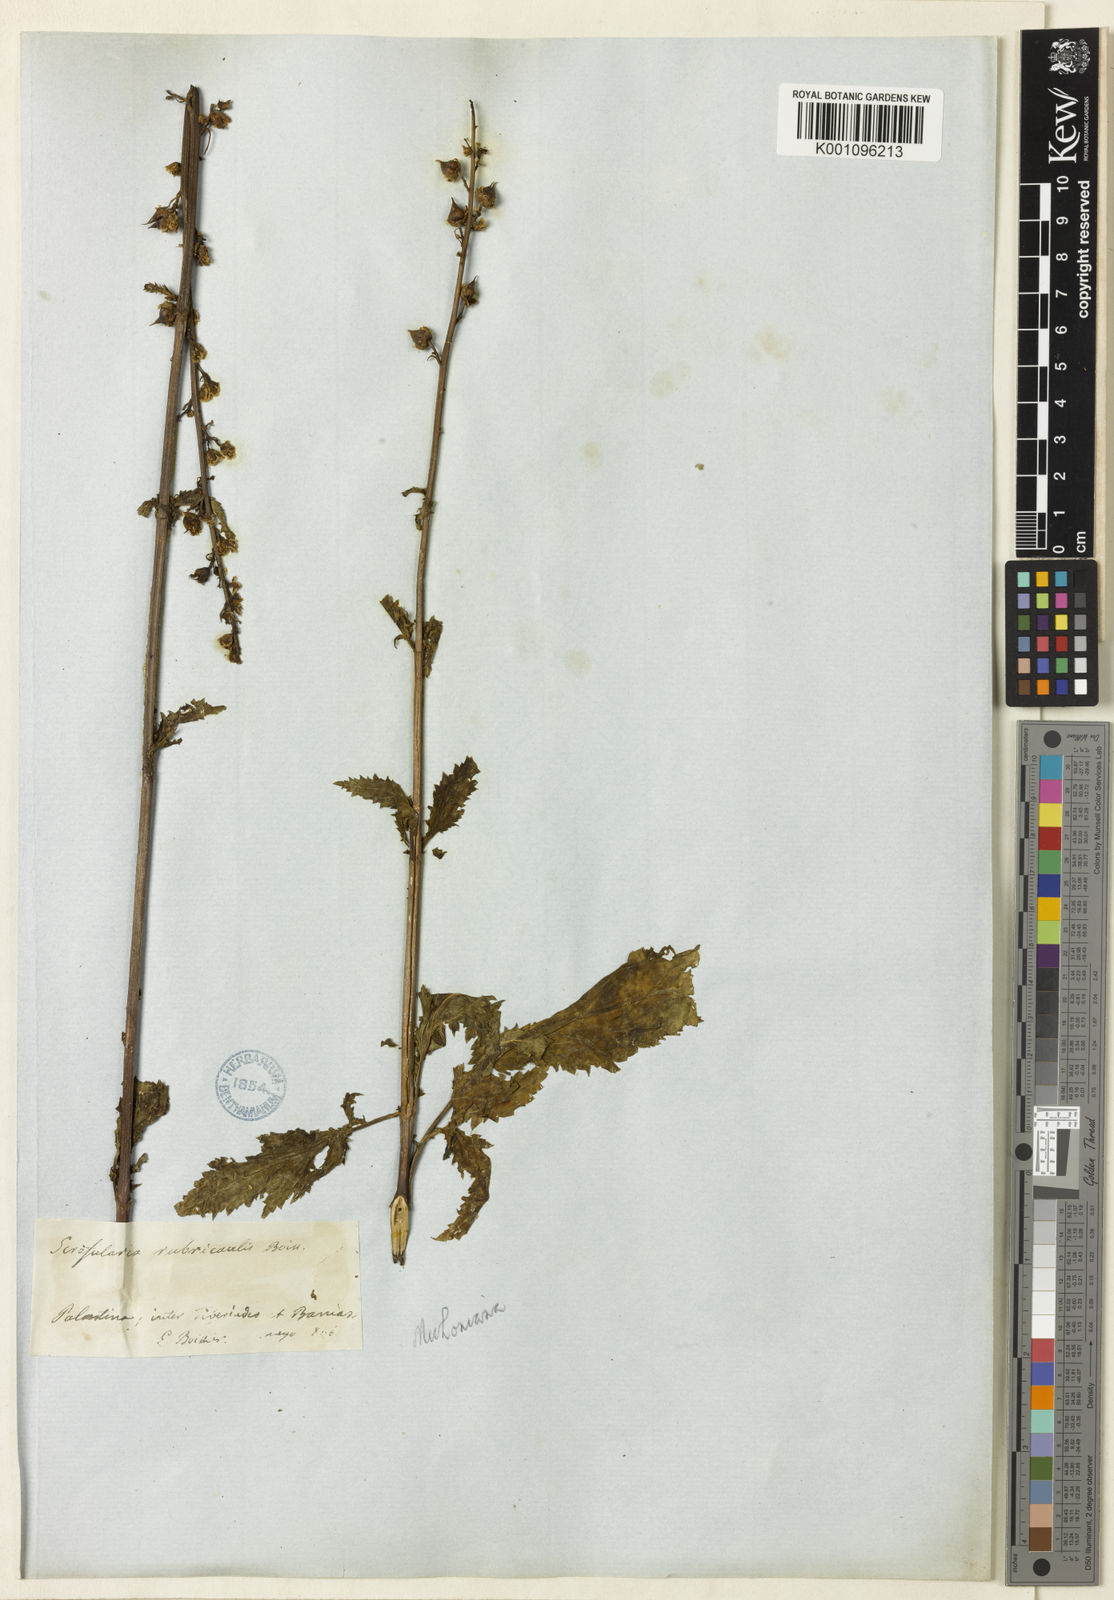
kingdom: Plantae
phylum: Tracheophyta
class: Magnoliopsida
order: Lamiales
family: Scrophulariaceae
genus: Scrophularia
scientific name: Scrophularia rubricaulis
